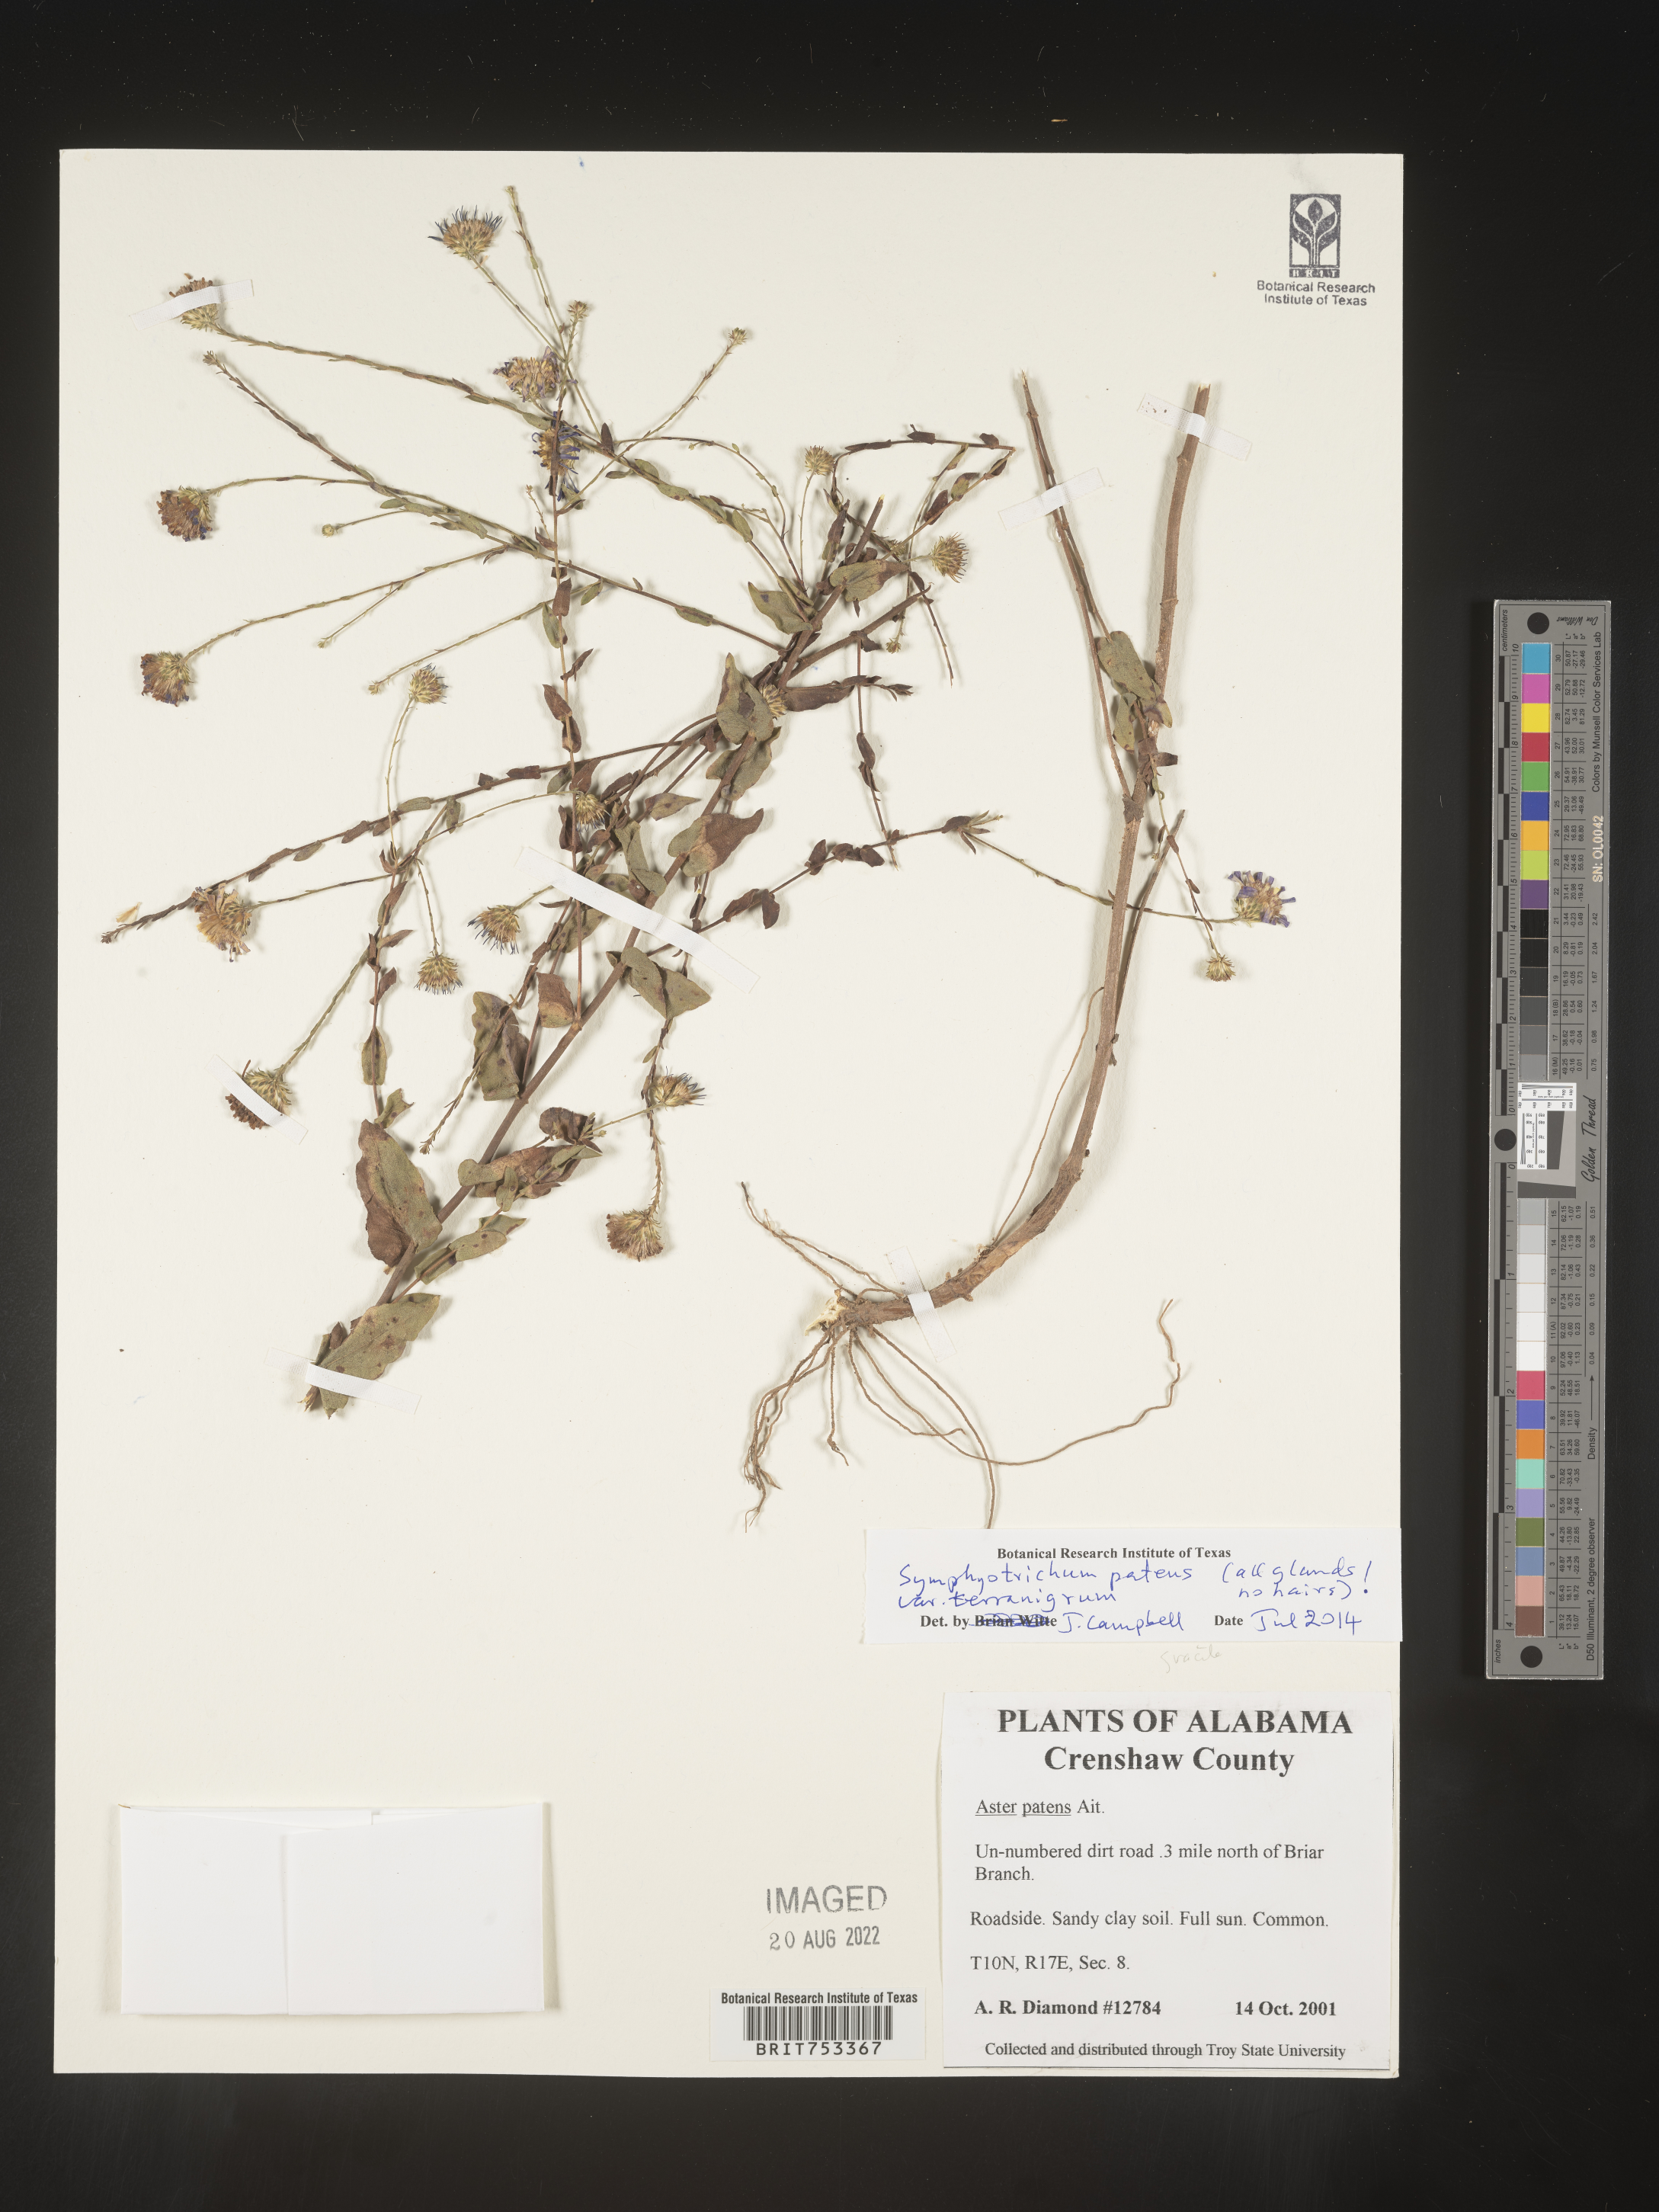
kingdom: Plantae
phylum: Tracheophyta
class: Magnoliopsida
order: Asterales
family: Asteraceae
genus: Symphyotrichum
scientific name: Symphyotrichum patens
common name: Late purple aster
